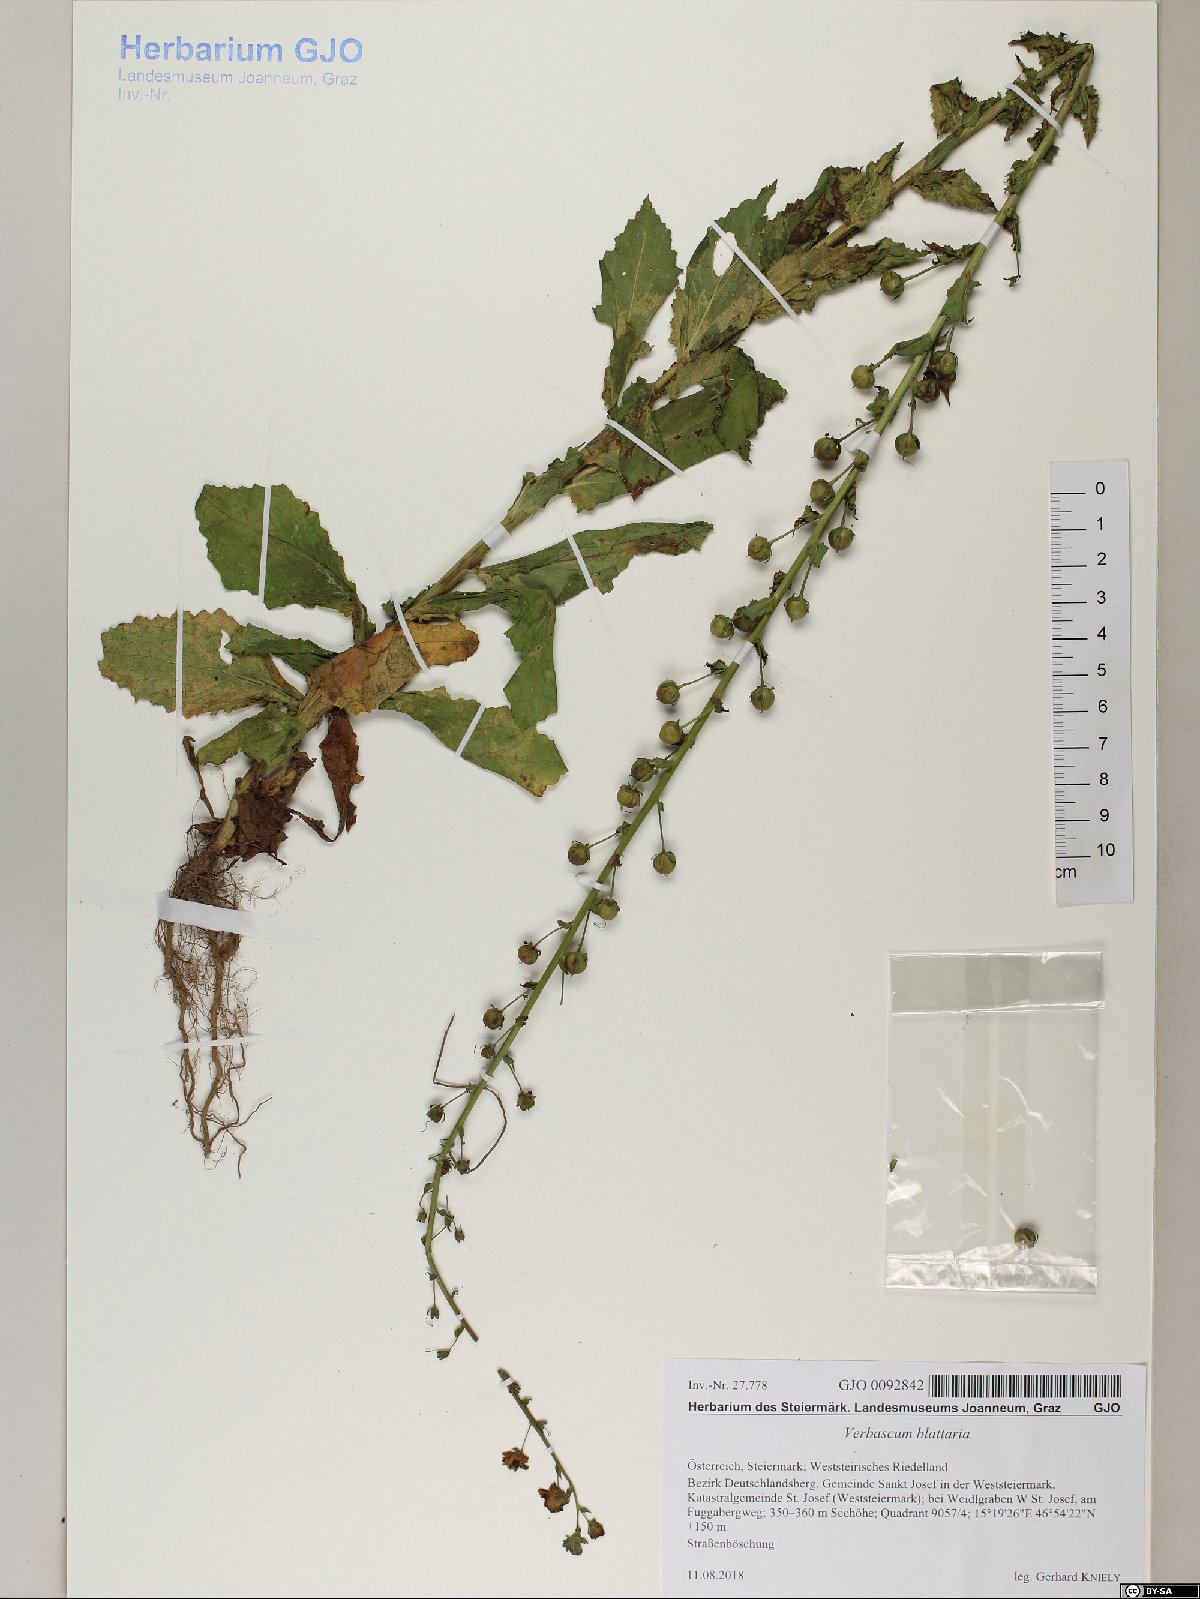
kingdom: Plantae
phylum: Tracheophyta
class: Magnoliopsida
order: Lamiales
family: Scrophulariaceae
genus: Verbascum
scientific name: Verbascum blattaria
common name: Moth mullein
